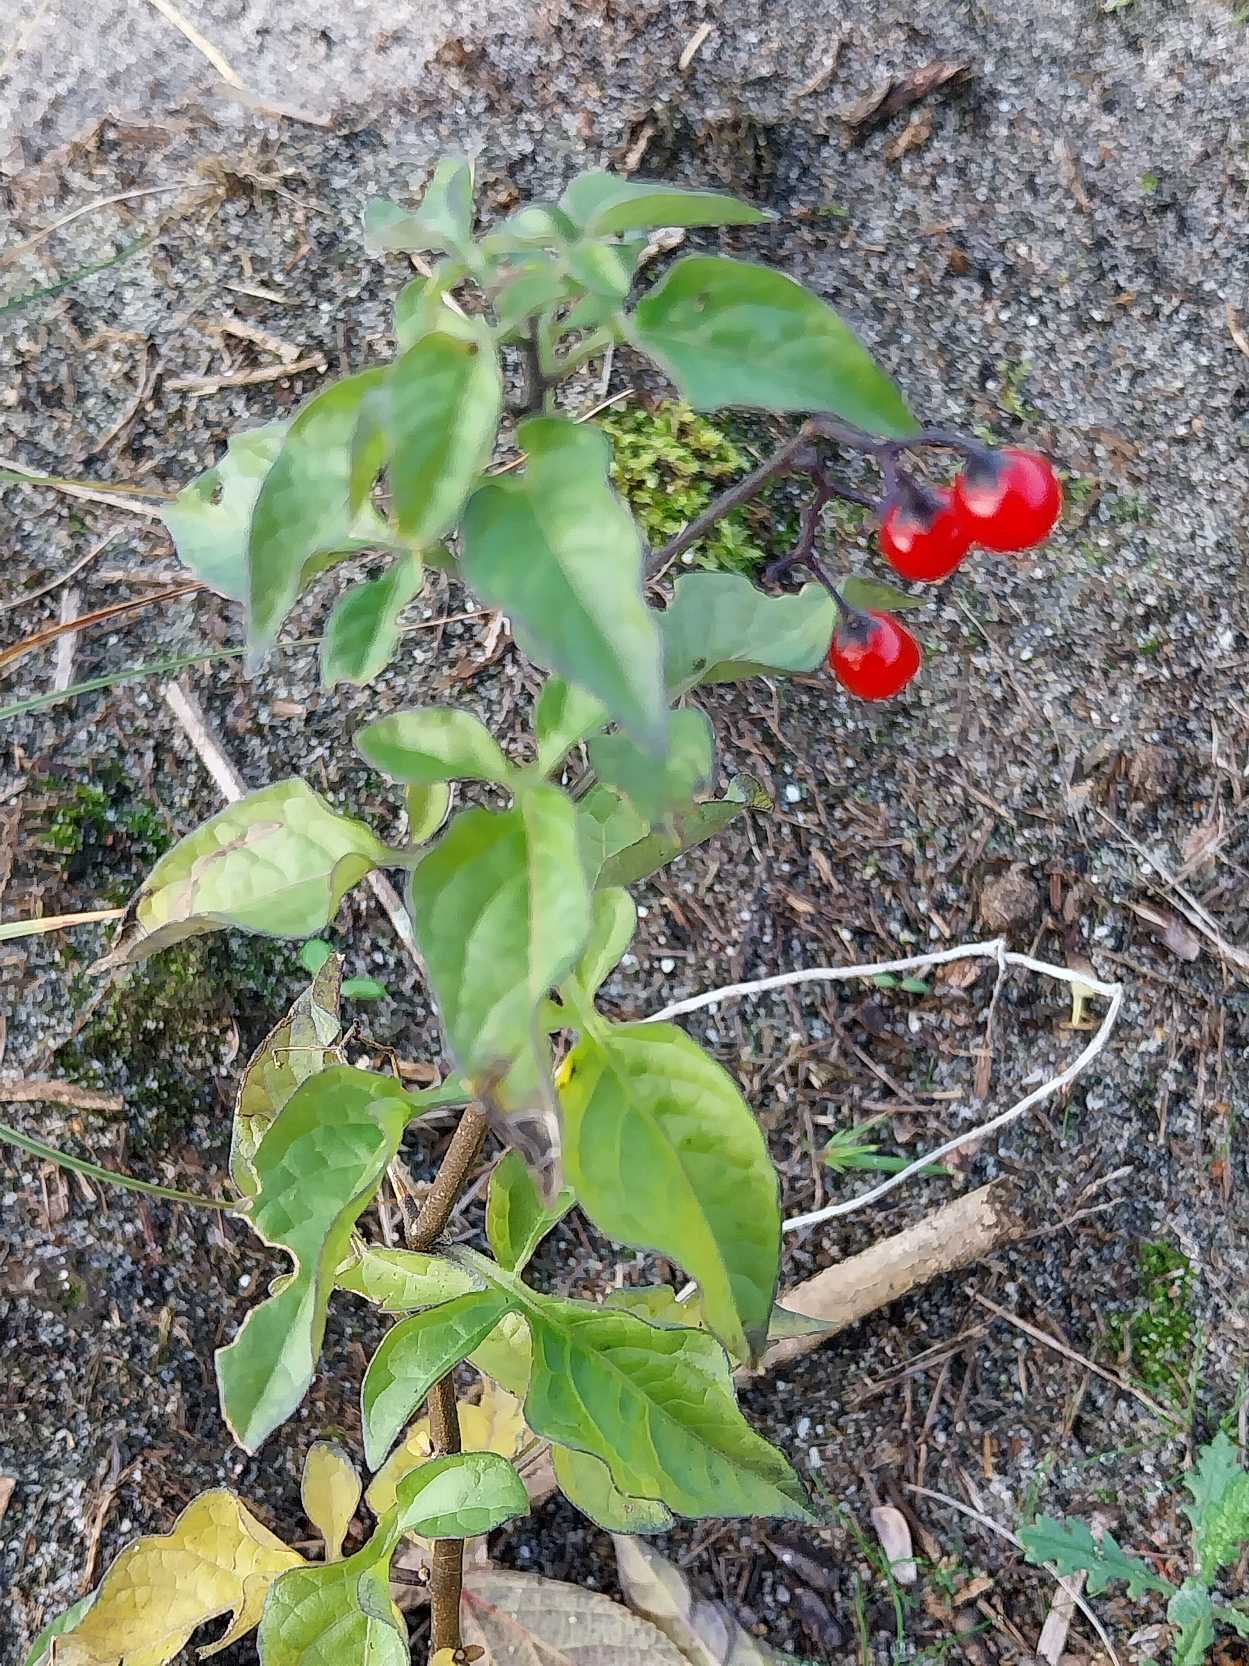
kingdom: Plantae
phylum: Tracheophyta
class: Magnoliopsida
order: Solanales
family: Solanaceae
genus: Solanum
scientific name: Solanum dulcamara
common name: Bittersød natskygge
